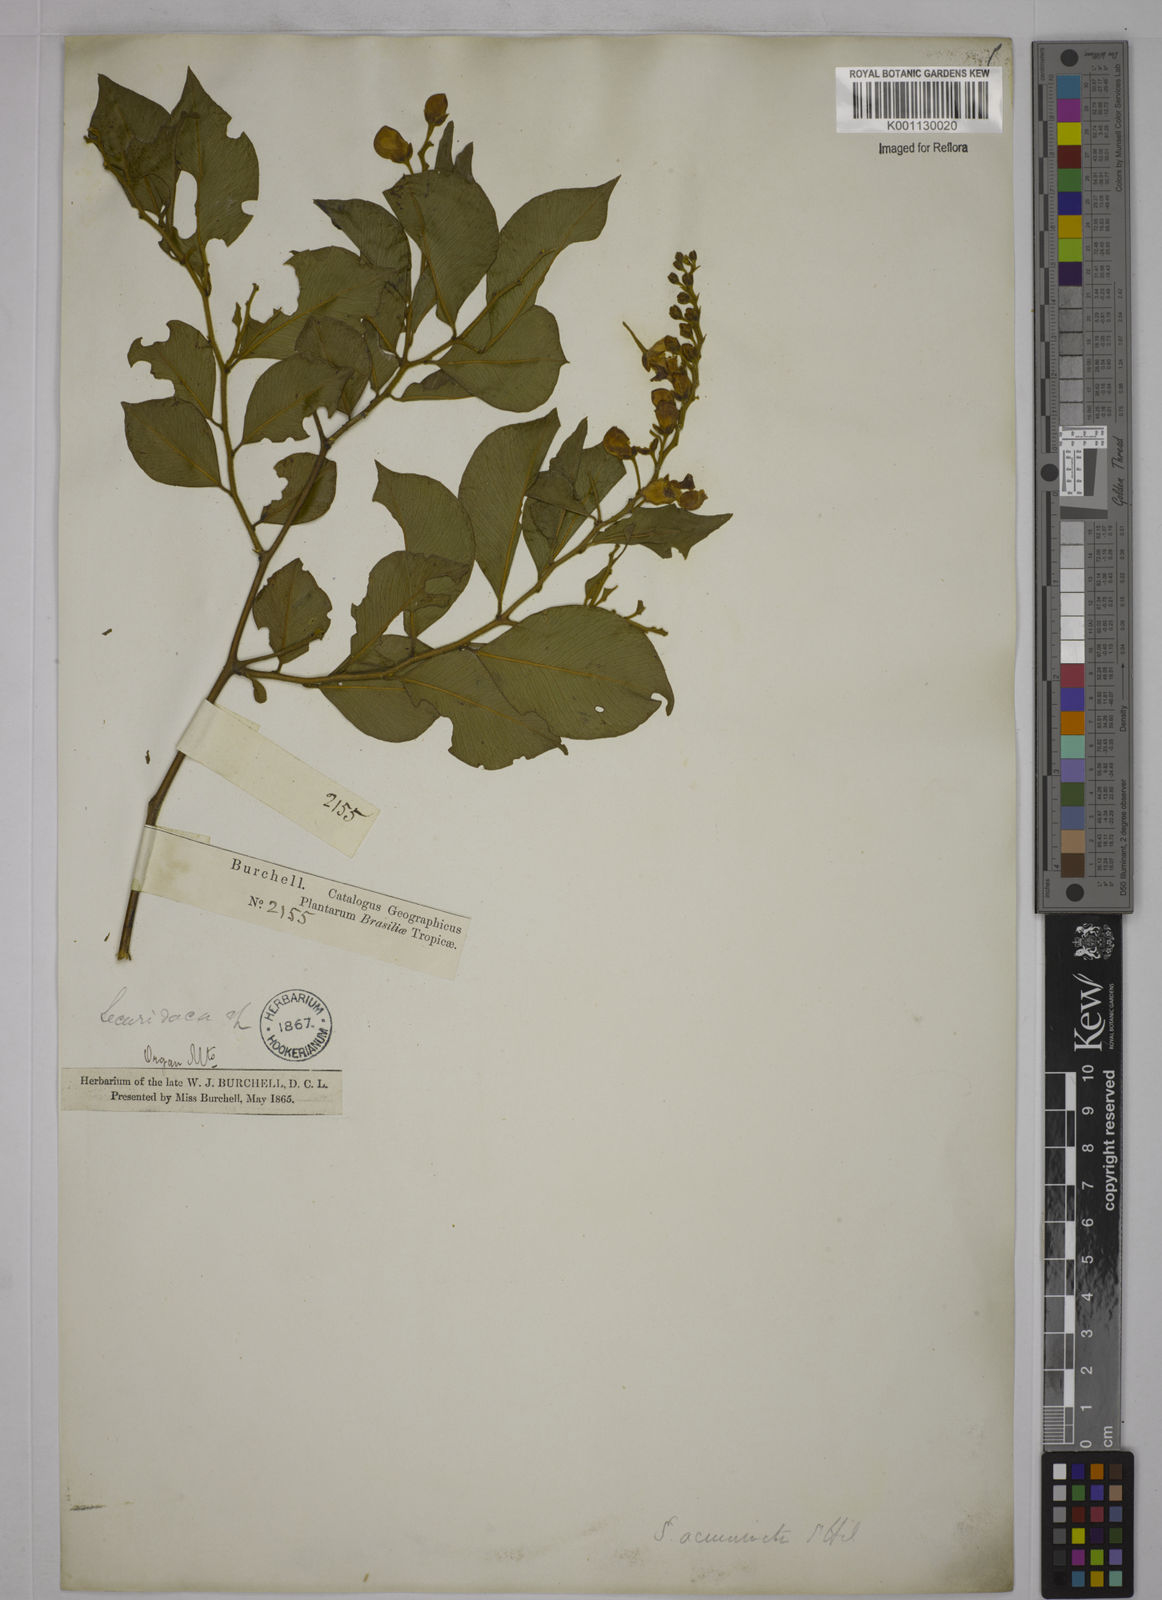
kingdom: Plantae
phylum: Tracheophyta
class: Magnoliopsida
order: Fabales
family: Polygalaceae
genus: Securidaca
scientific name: Securidaca acuminata
